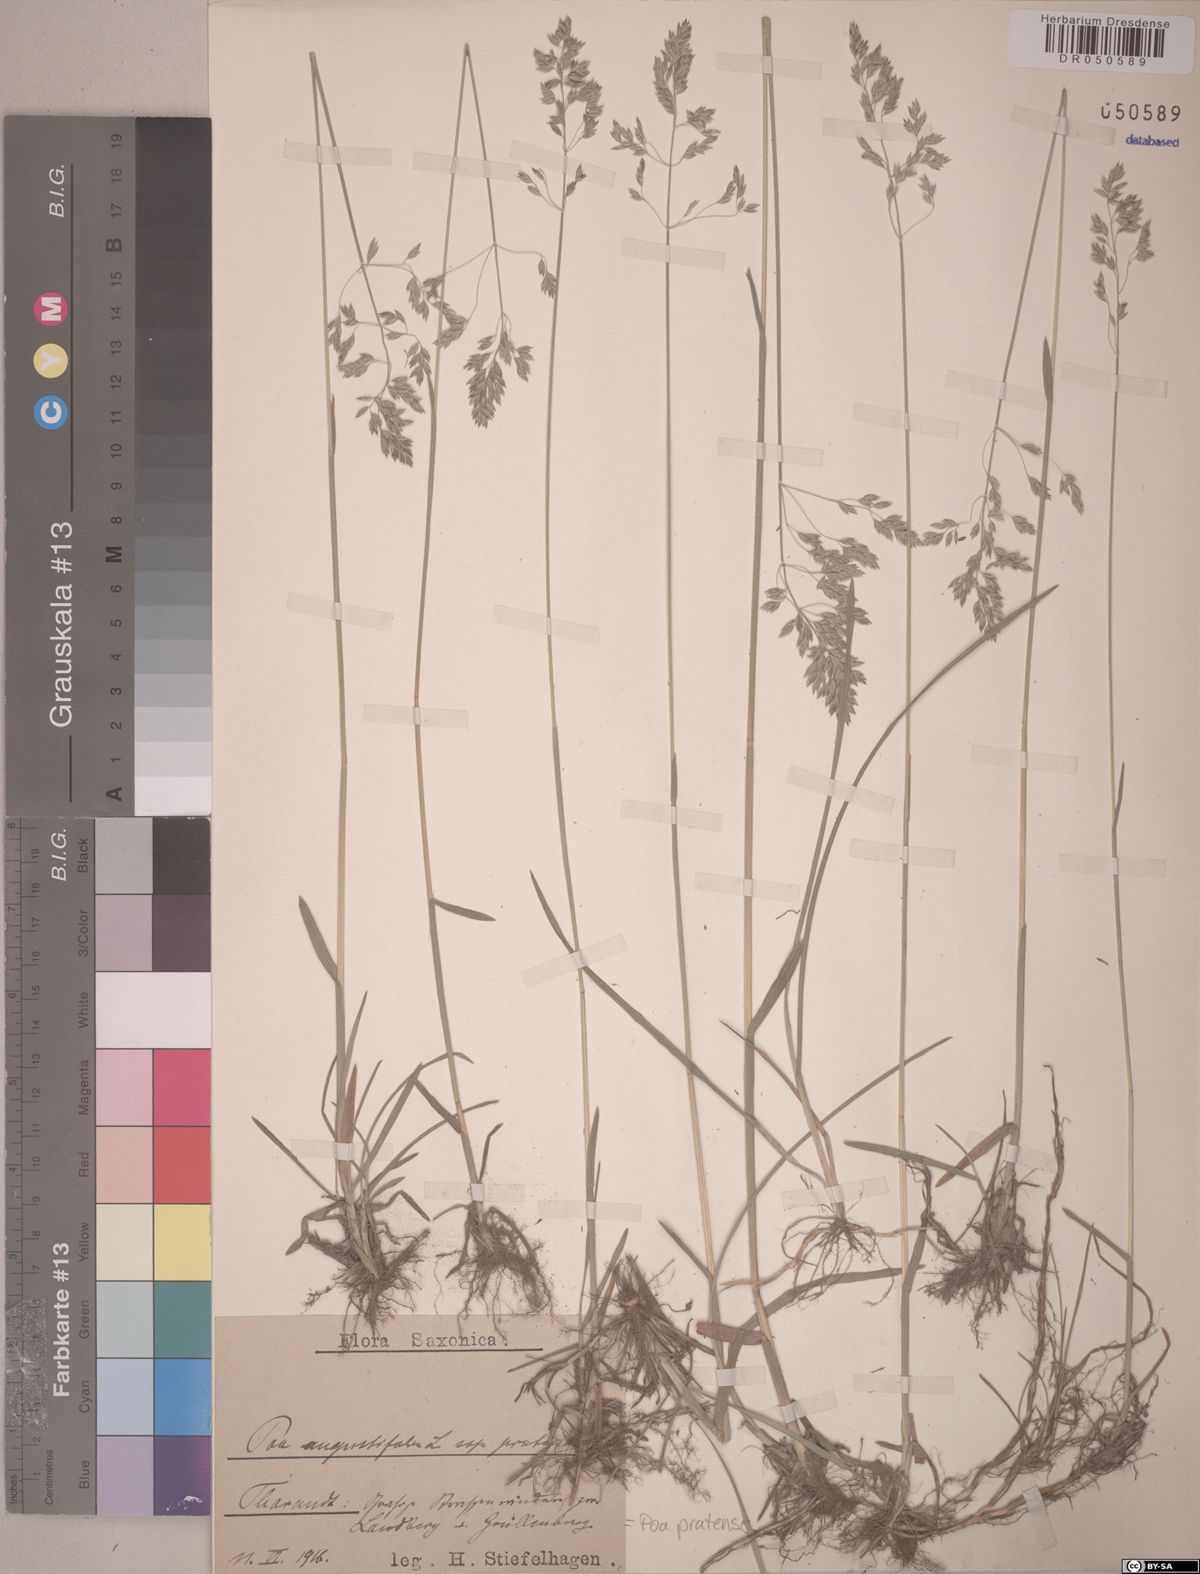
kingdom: Plantae
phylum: Tracheophyta
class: Liliopsida
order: Poales
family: Poaceae
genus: Poa
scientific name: Poa pratensis
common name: Kentucky bluegrass
